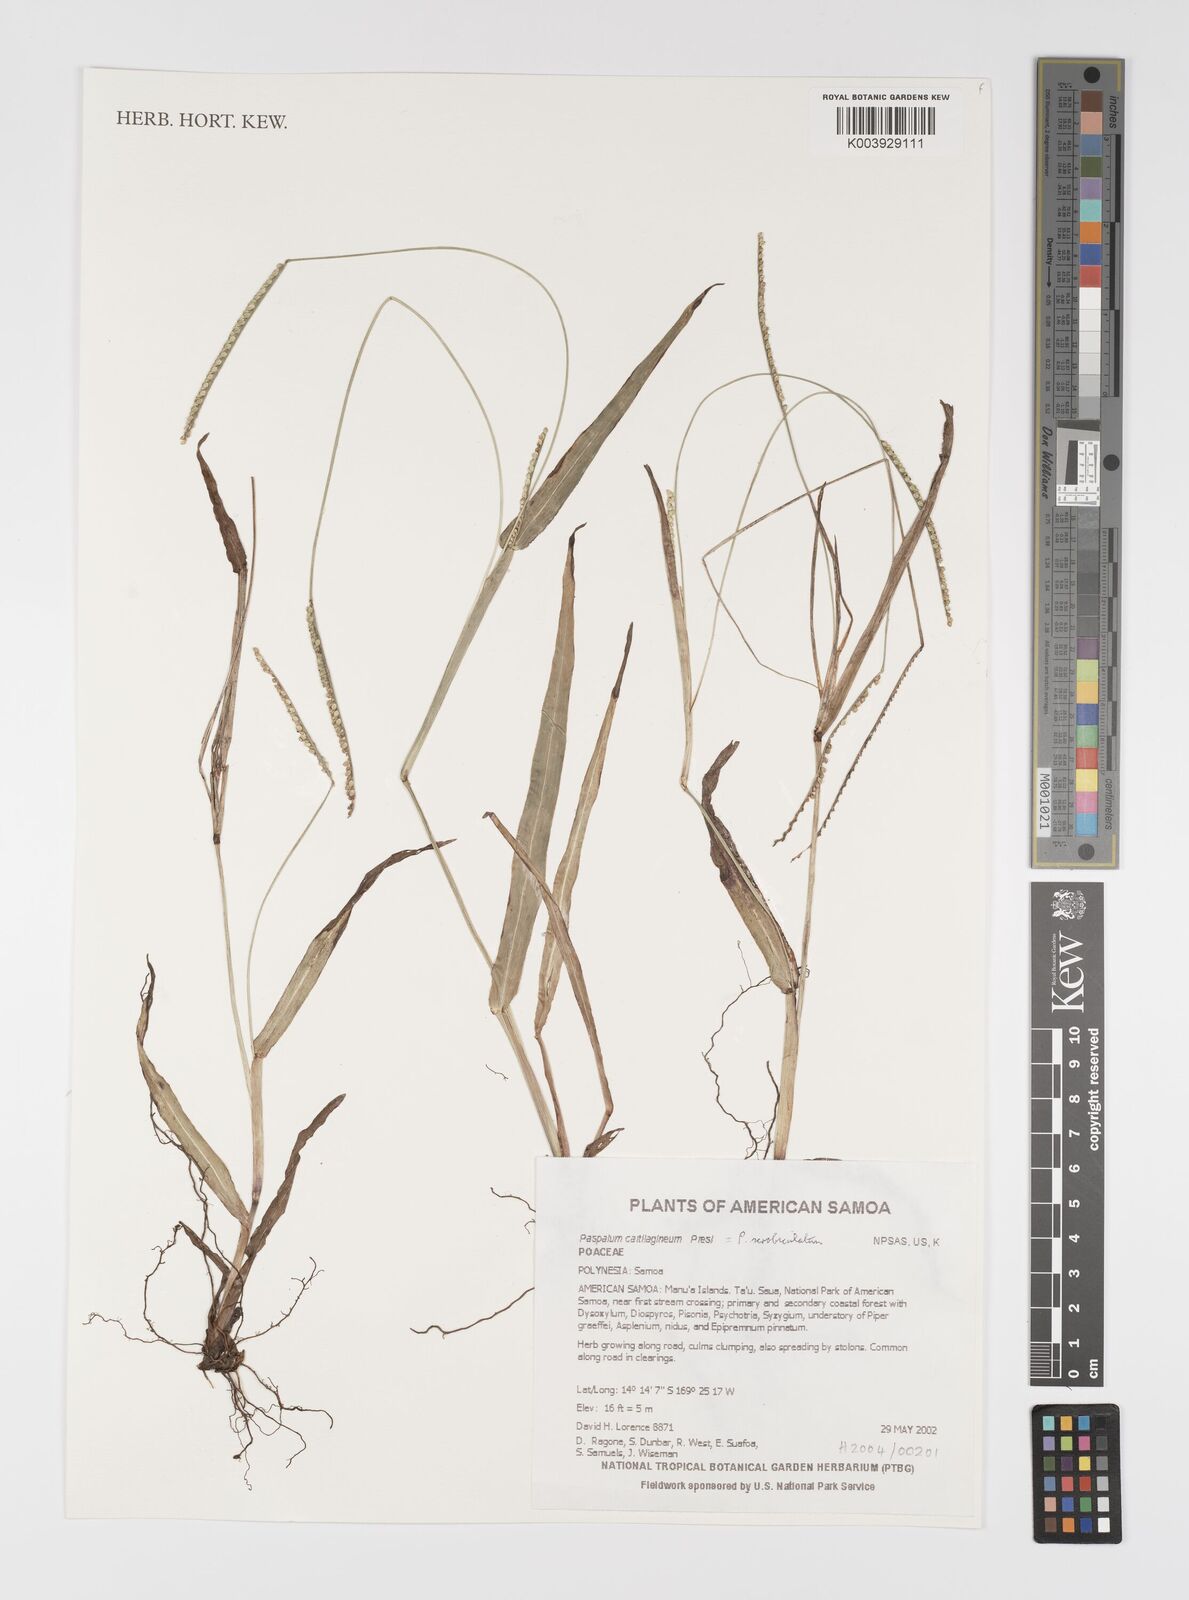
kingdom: Plantae
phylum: Tracheophyta
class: Liliopsida
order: Poales
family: Poaceae
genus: Paspalum
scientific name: Paspalum setaceum
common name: Slender paspalum
